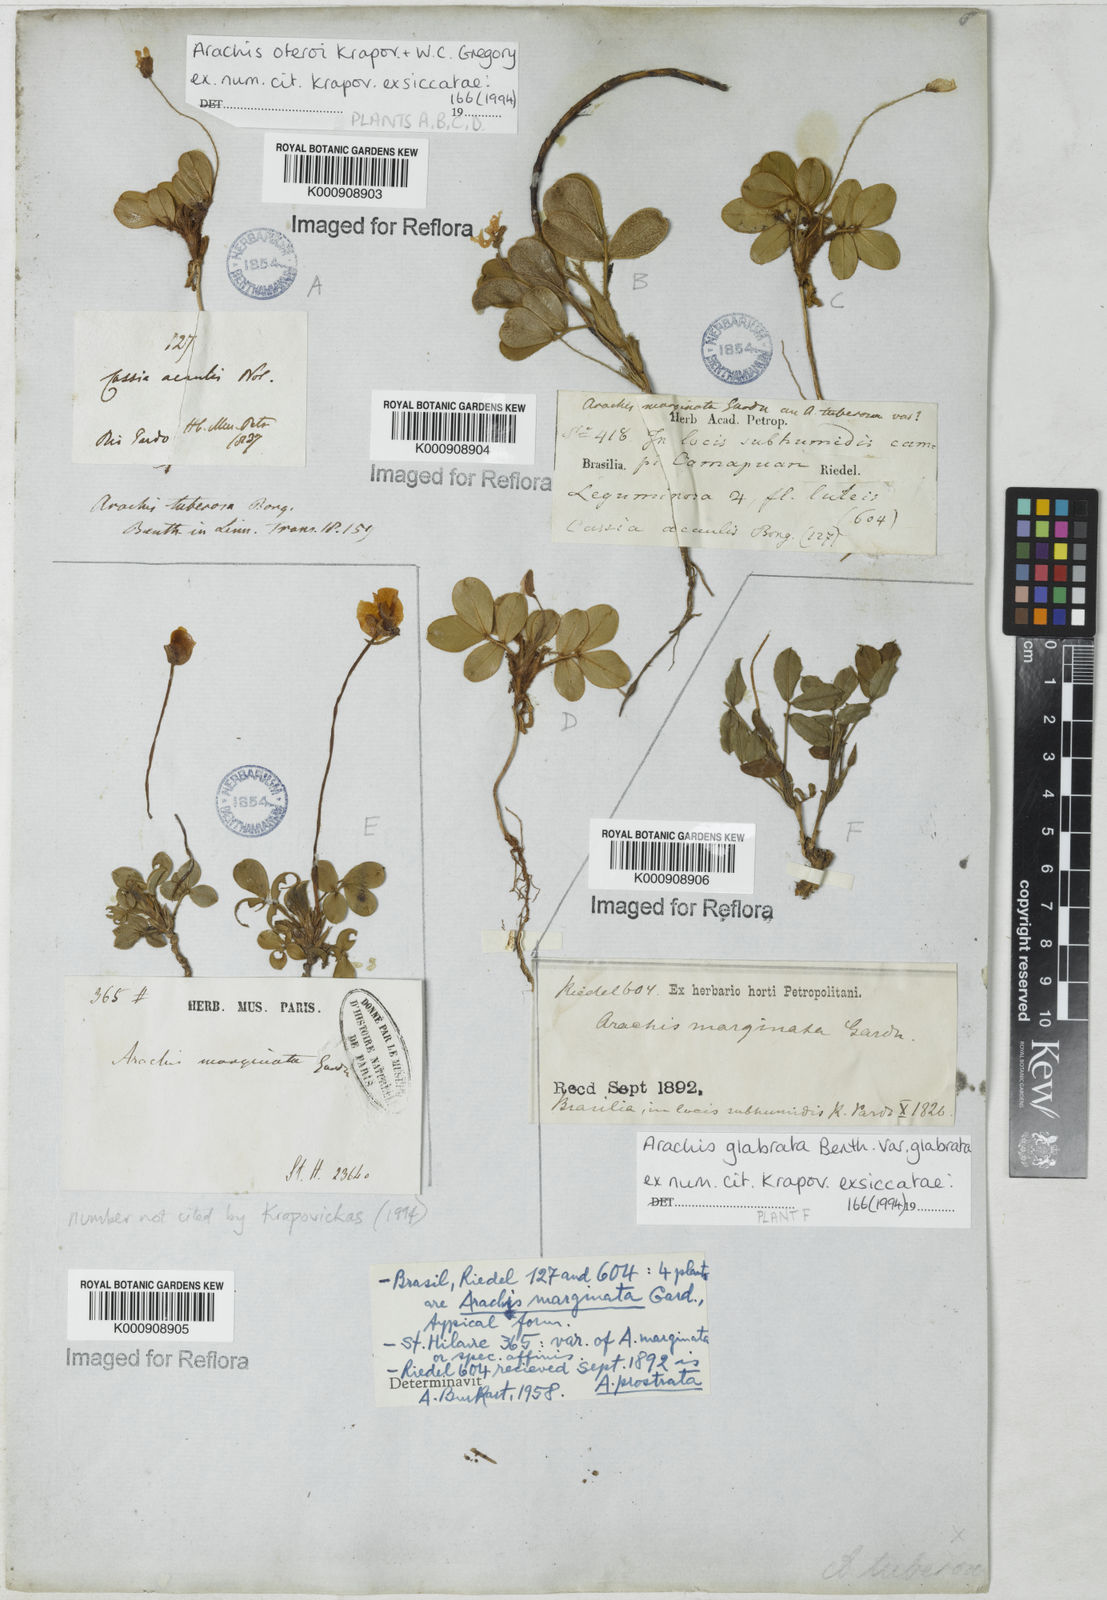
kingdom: Plantae
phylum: Tracheophyta
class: Magnoliopsida
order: Fabales
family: Fabaceae
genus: Arachis
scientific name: Arachis major
